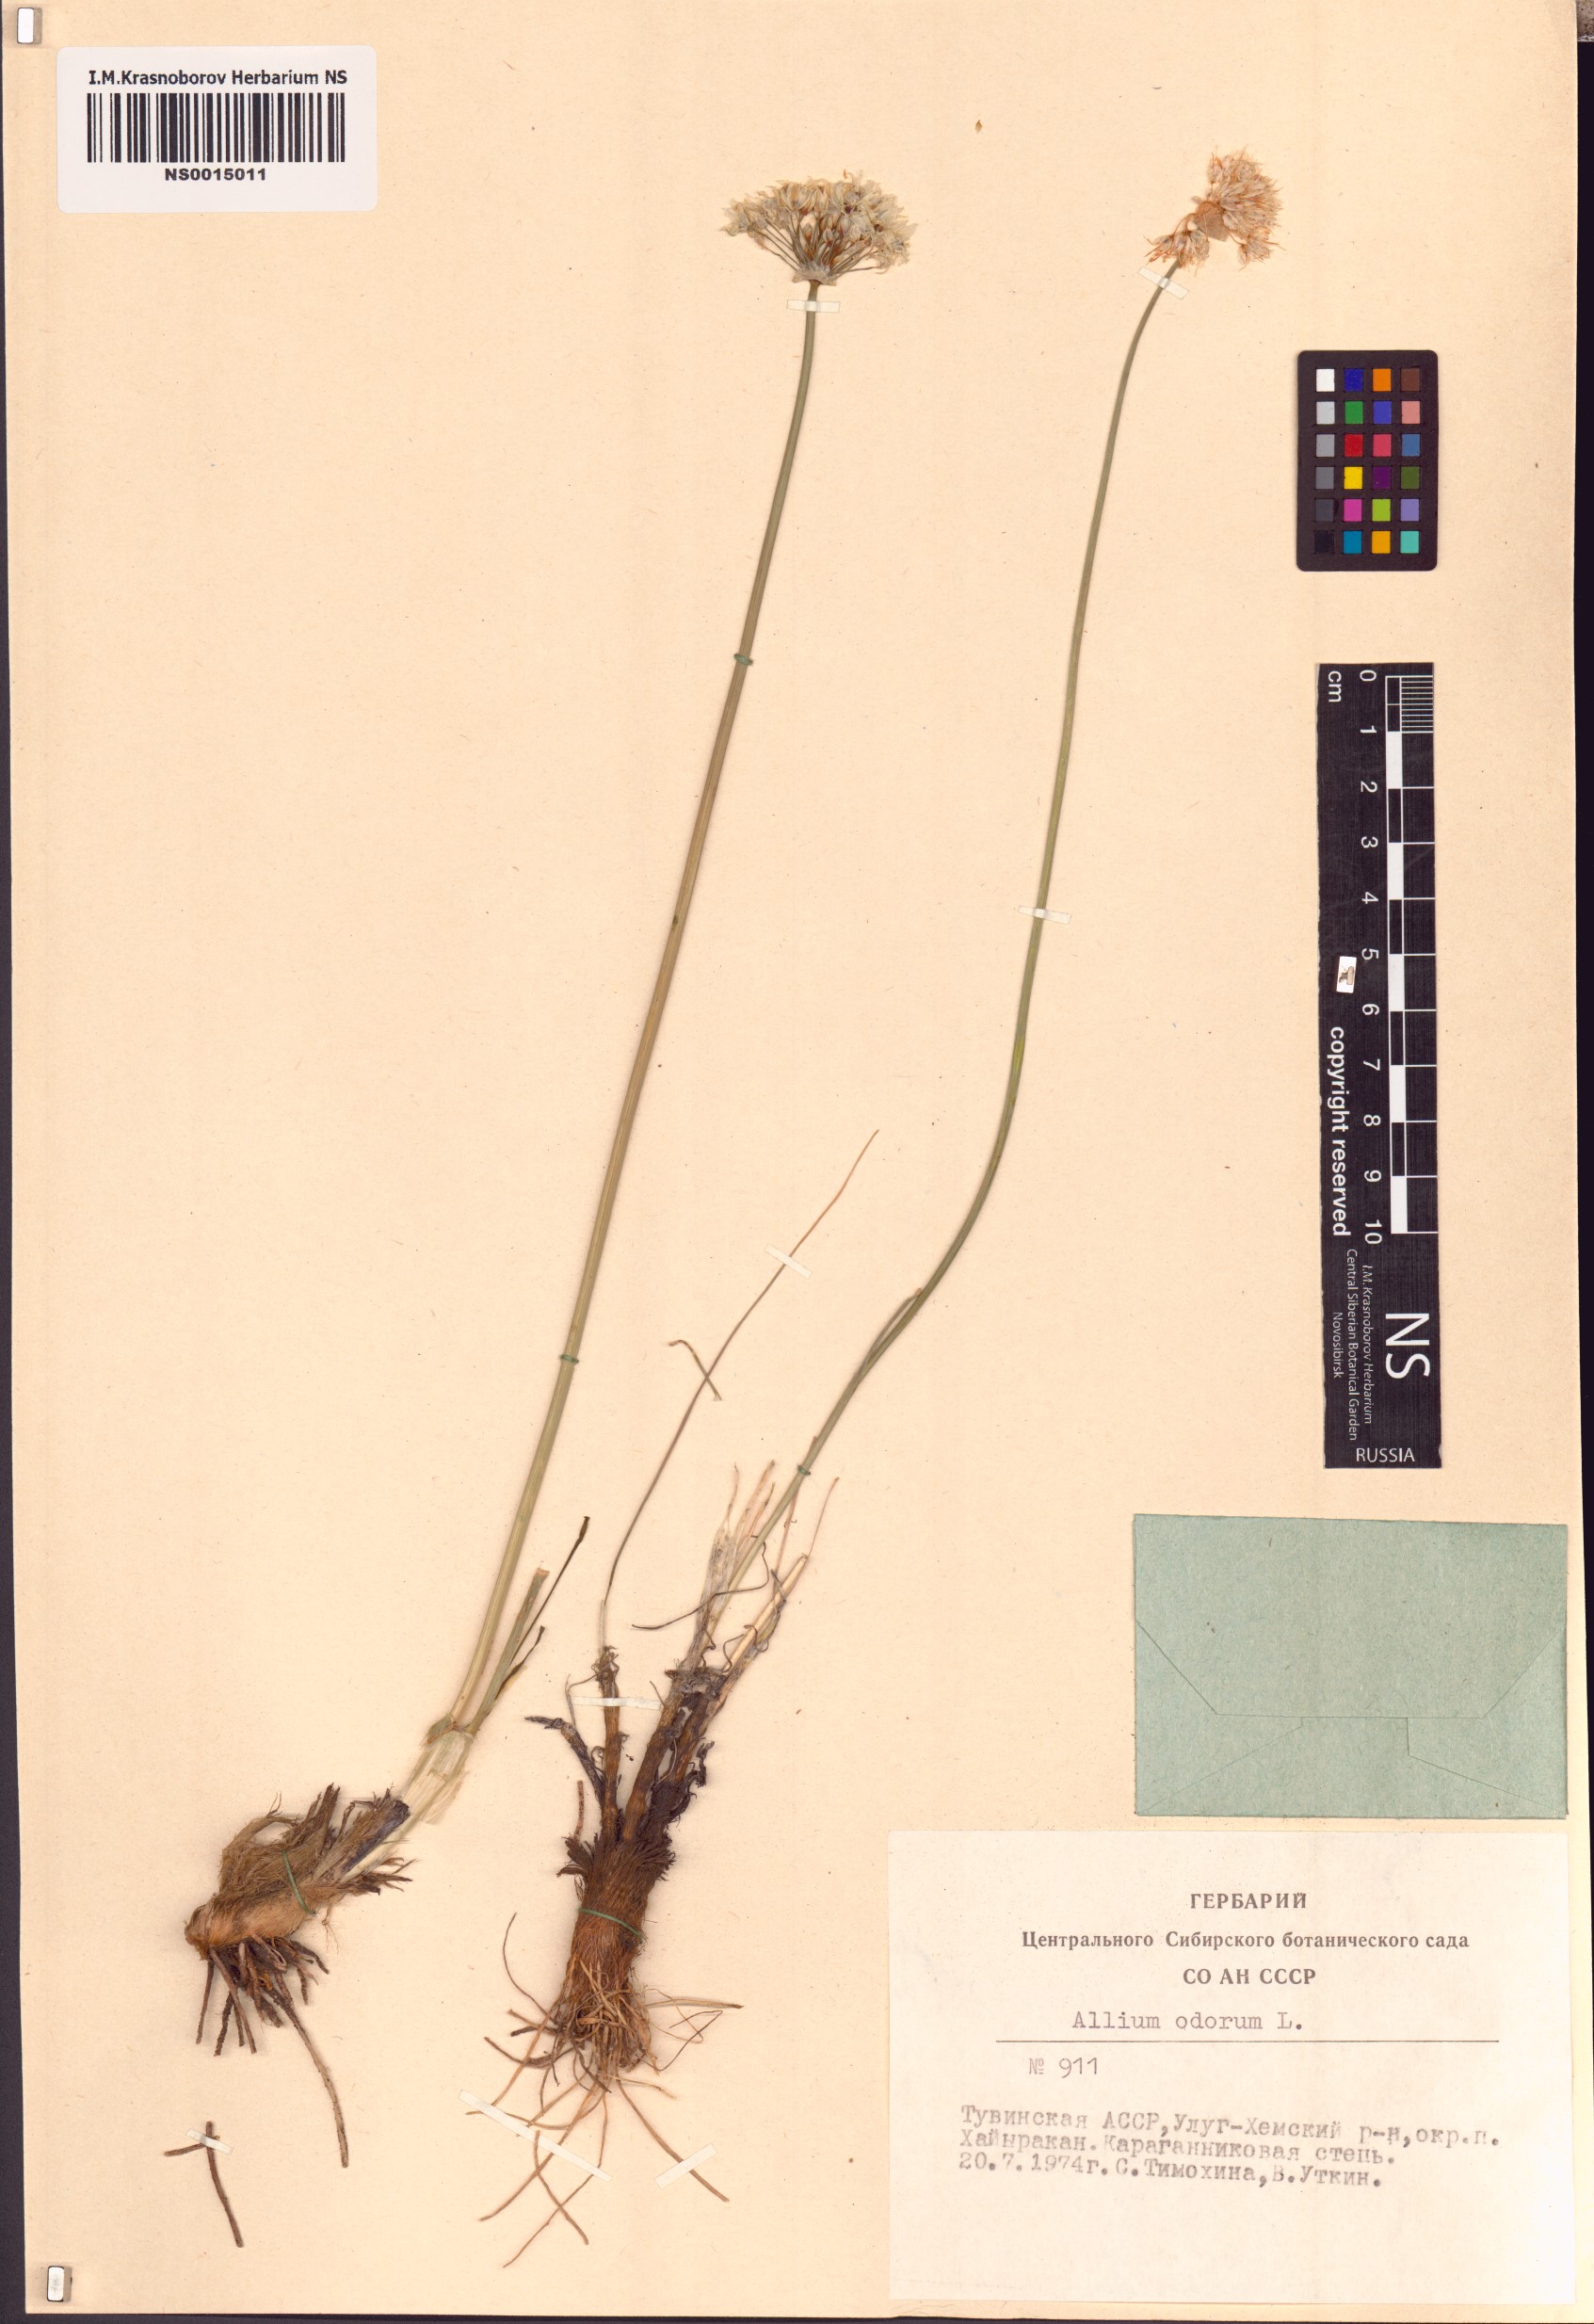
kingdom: Plantae
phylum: Tracheophyta
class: Liliopsida
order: Asparagales
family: Amaryllidaceae
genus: Allium
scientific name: Allium ramosum
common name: Fragrant garlic
